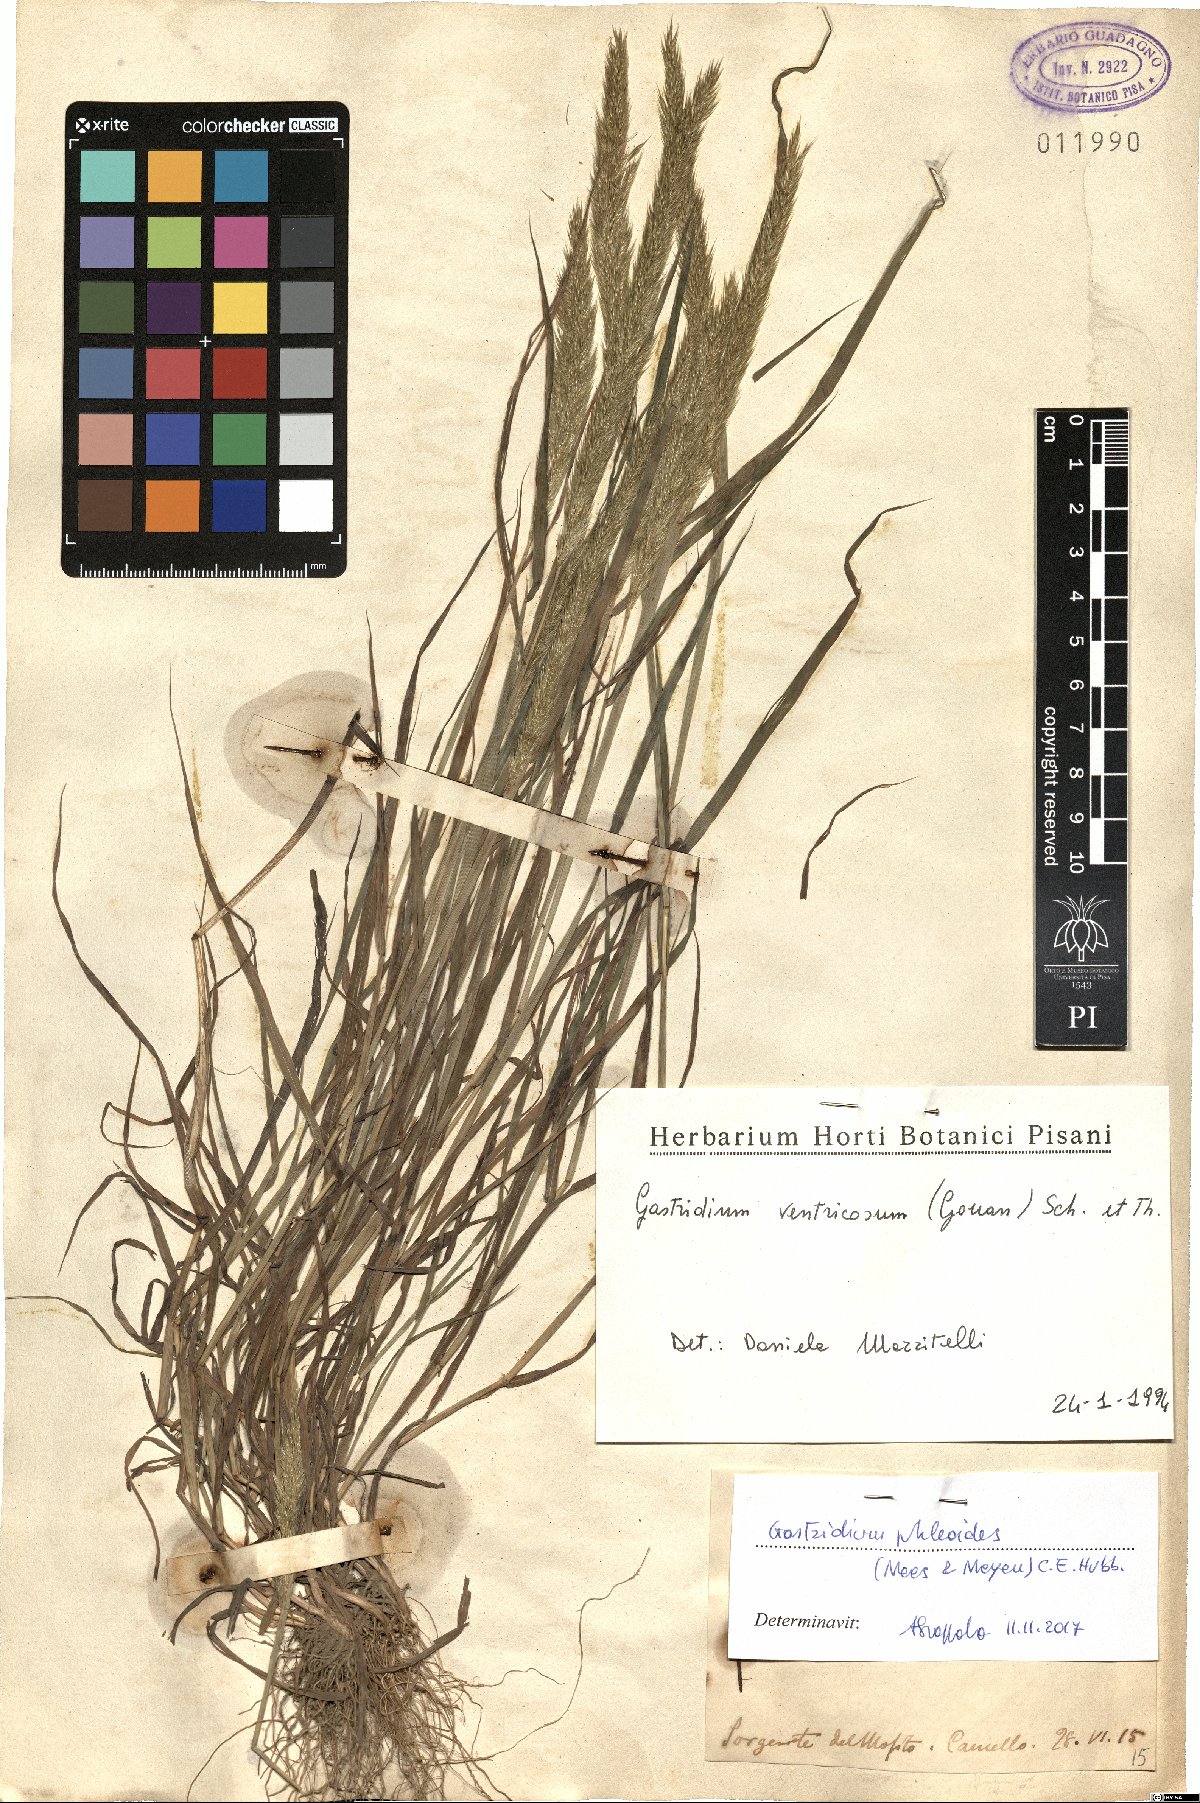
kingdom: Plantae
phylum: Tracheophyta
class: Liliopsida
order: Poales
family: Poaceae
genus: Gastridium
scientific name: Gastridium phleoides
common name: Nit grass
